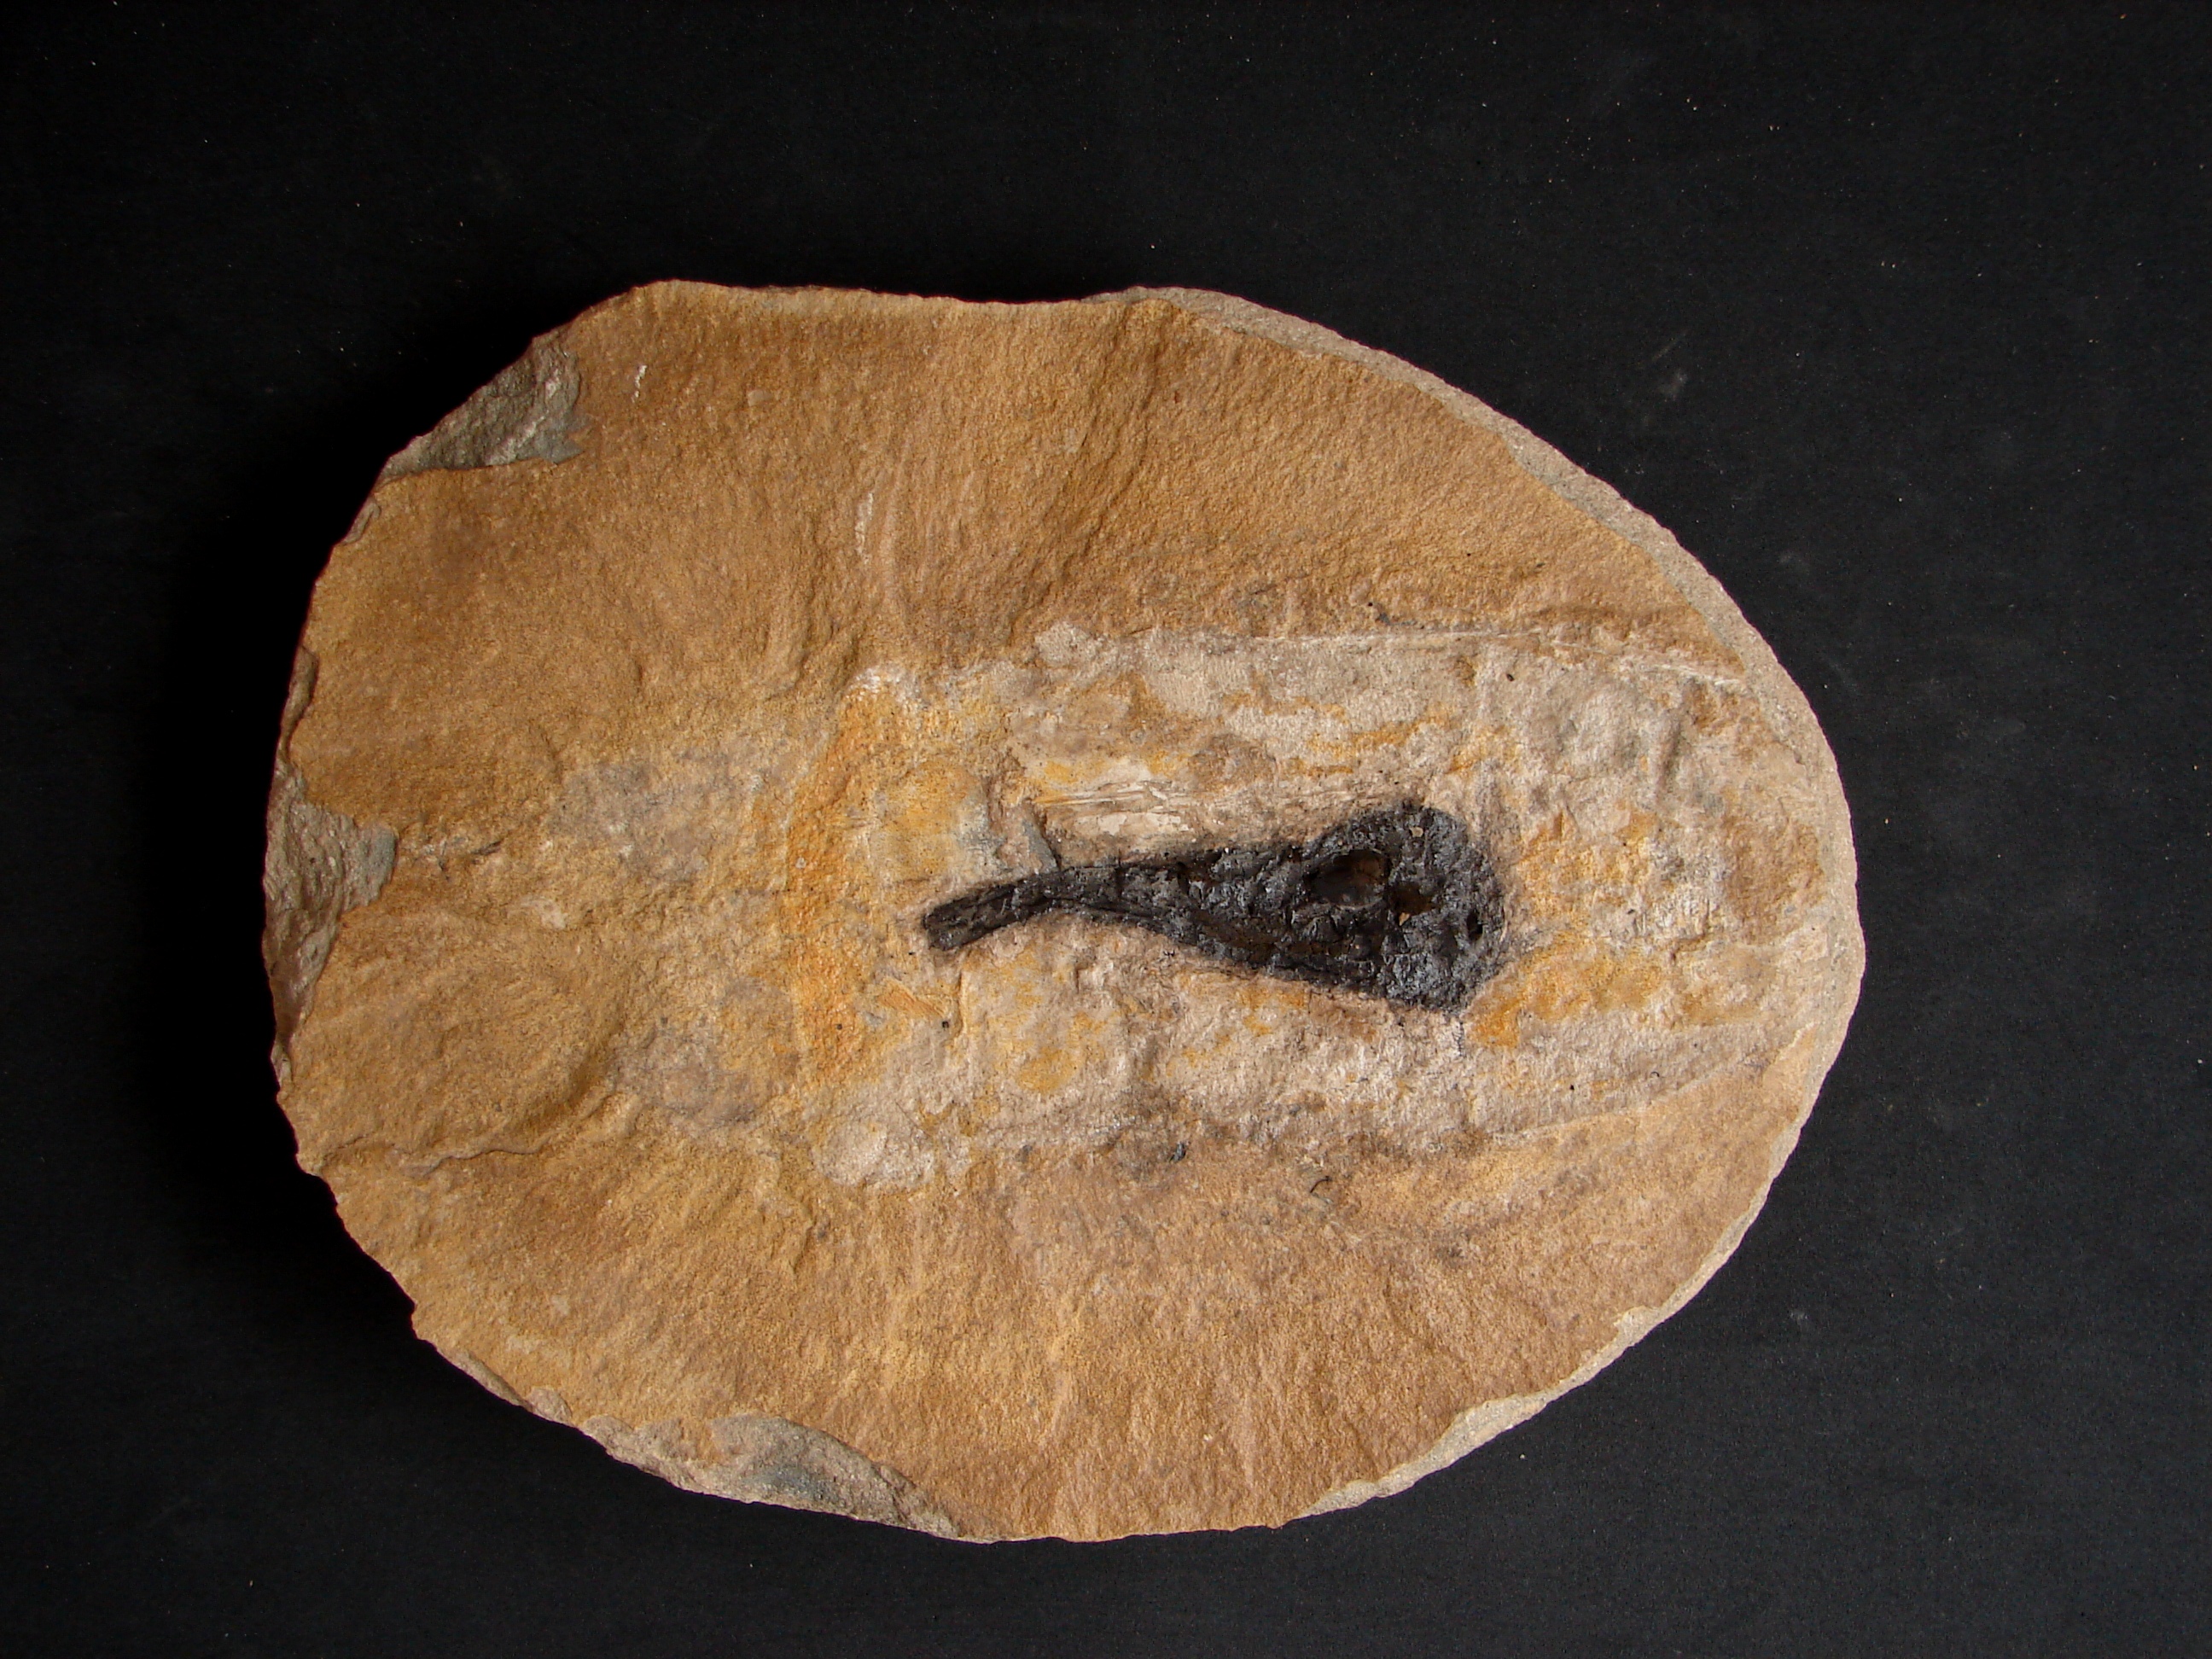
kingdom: Animalia
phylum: Mollusca
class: Cephalopoda
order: Vampyromorpha
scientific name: Vampyromorpha
